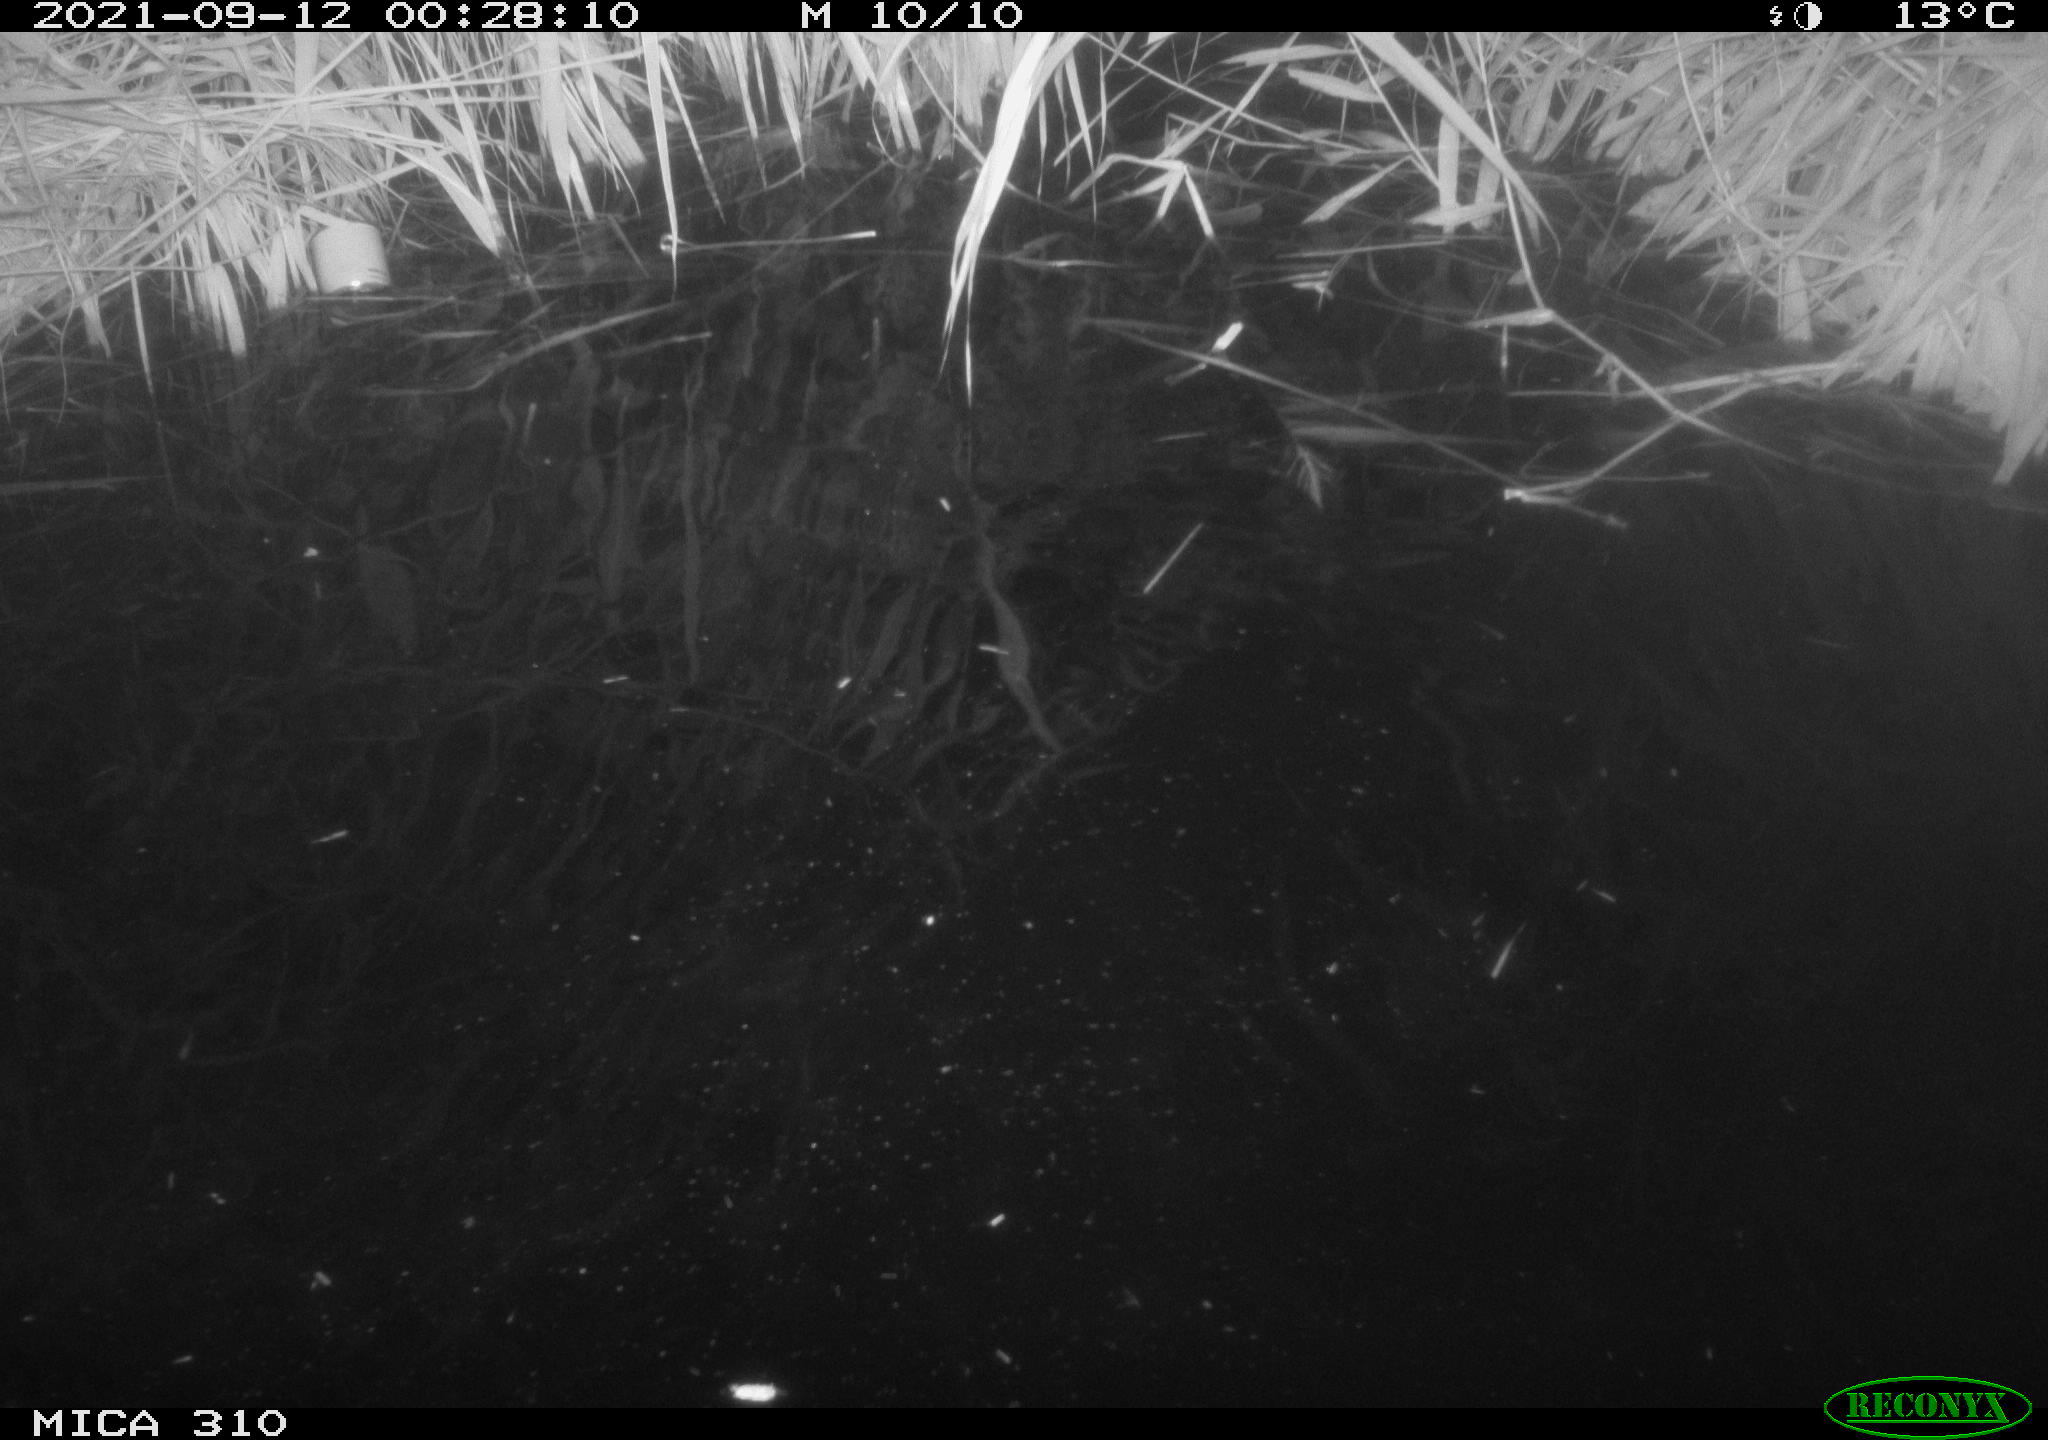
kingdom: Animalia
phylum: Chordata
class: Aves
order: Anseriformes
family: Anatidae
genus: Mareca
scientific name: Mareca strepera
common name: Gadwall
